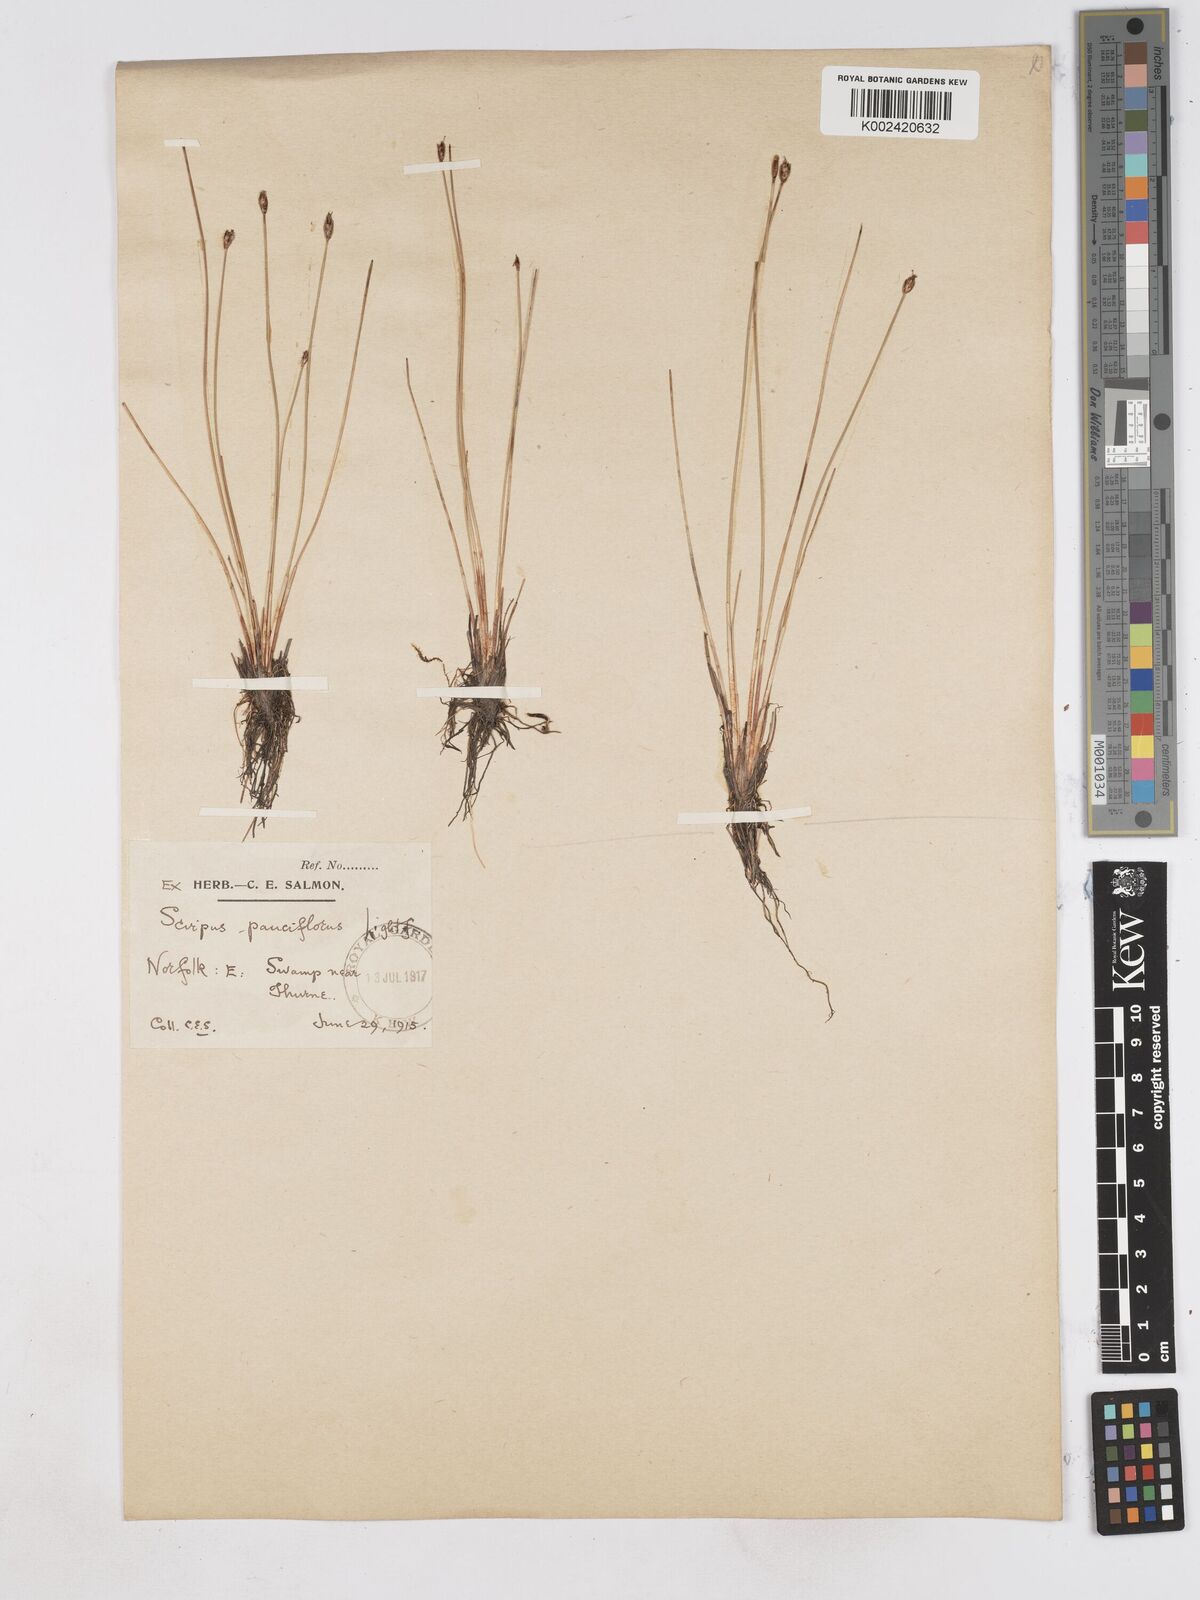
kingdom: Plantae
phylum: Tracheophyta
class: Liliopsida
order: Poales
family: Cyperaceae
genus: Eleocharis
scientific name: Eleocharis quinqueflora
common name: Few-flowered spike-rush
